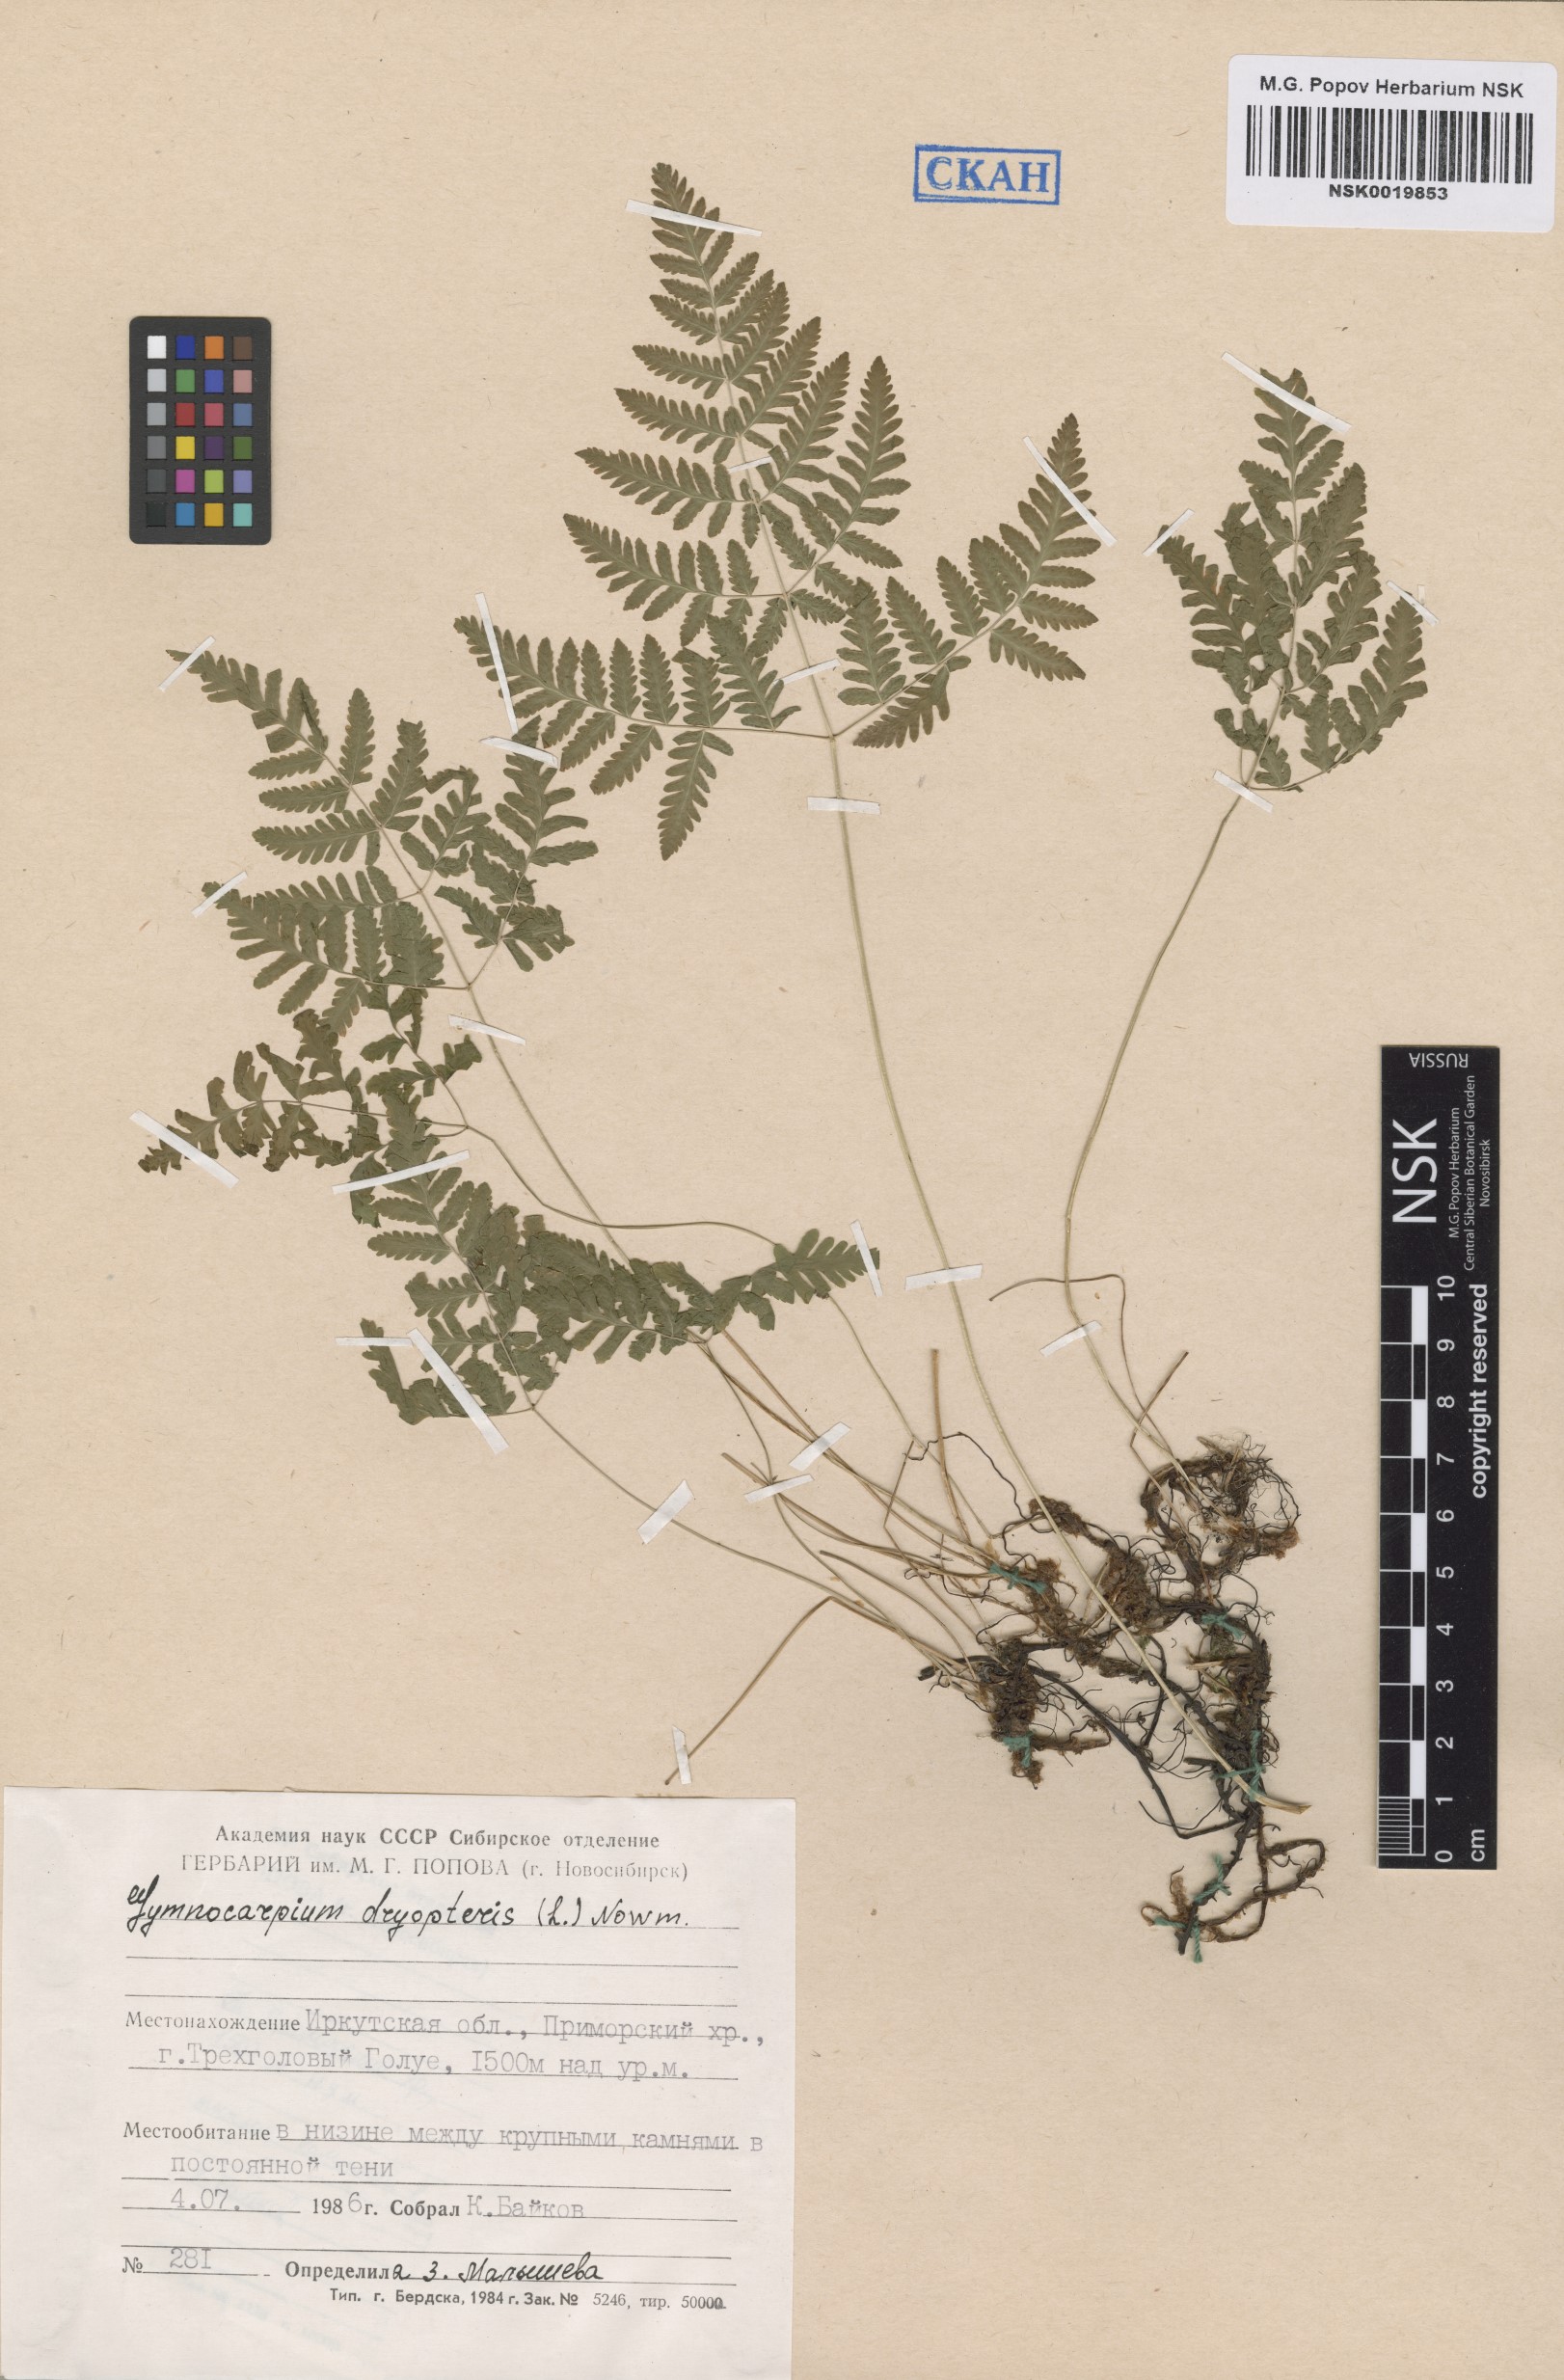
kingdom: Plantae
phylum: Tracheophyta
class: Polypodiopsida
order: Polypodiales
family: Cystopteridaceae
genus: Gymnocarpium
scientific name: Gymnocarpium dryopteris
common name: Oak fern
